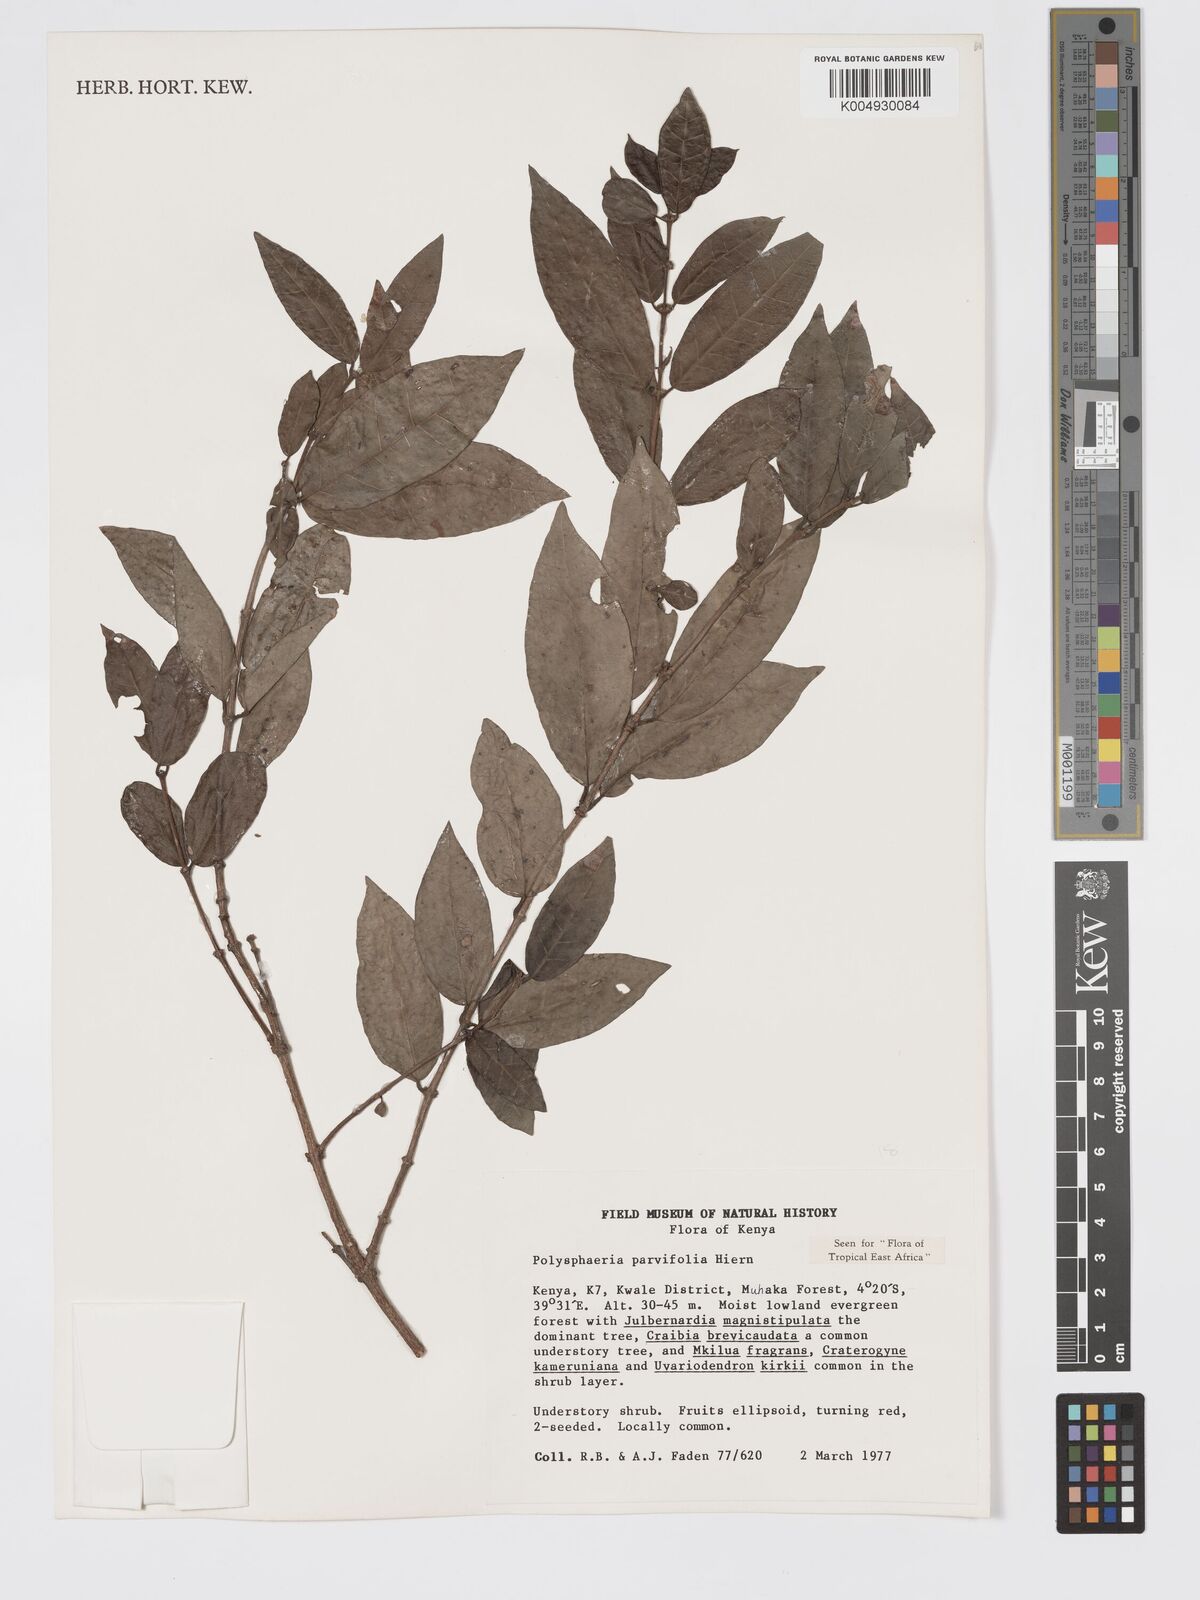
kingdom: Plantae
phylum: Tracheophyta
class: Magnoliopsida
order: Gentianales
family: Rubiaceae
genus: Polysphaeria
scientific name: Polysphaeria parvifolia
